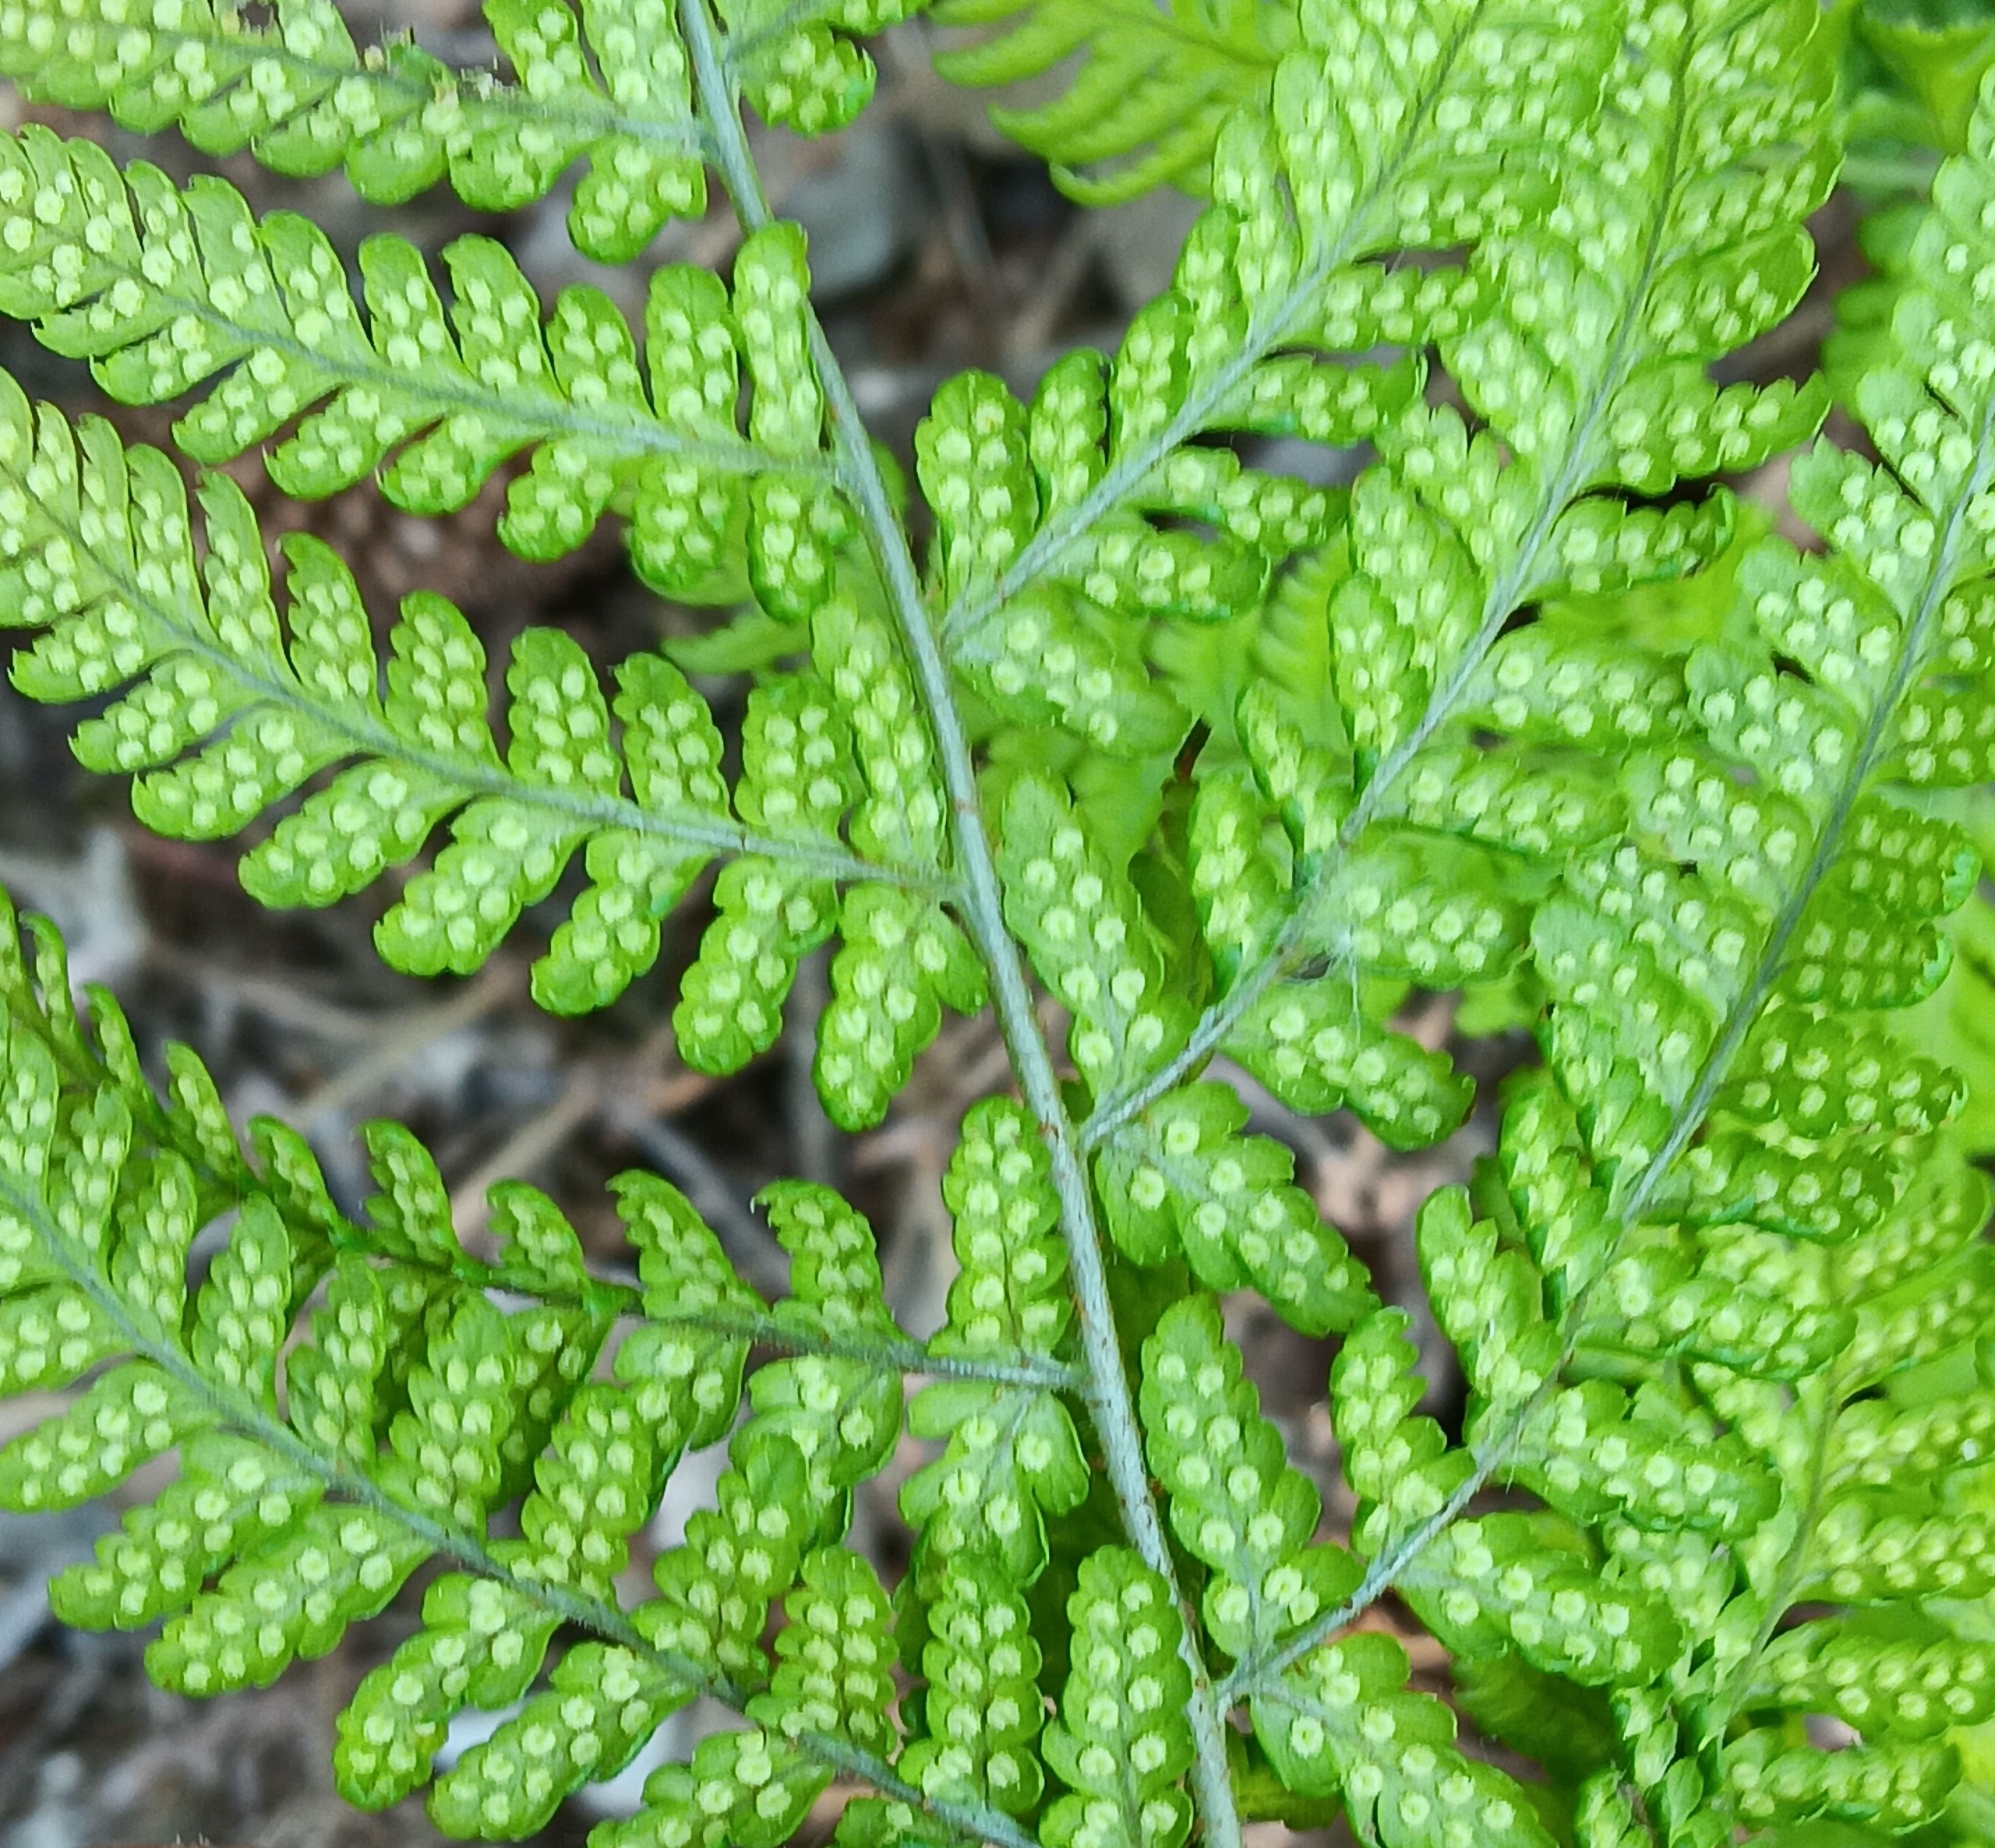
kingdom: Plantae
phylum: Tracheophyta
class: Polypodiopsida
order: Polypodiales
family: Dryopteridaceae
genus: Dryopteris
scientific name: Dryopteris dilatata
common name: Bredbladet mangeløv
